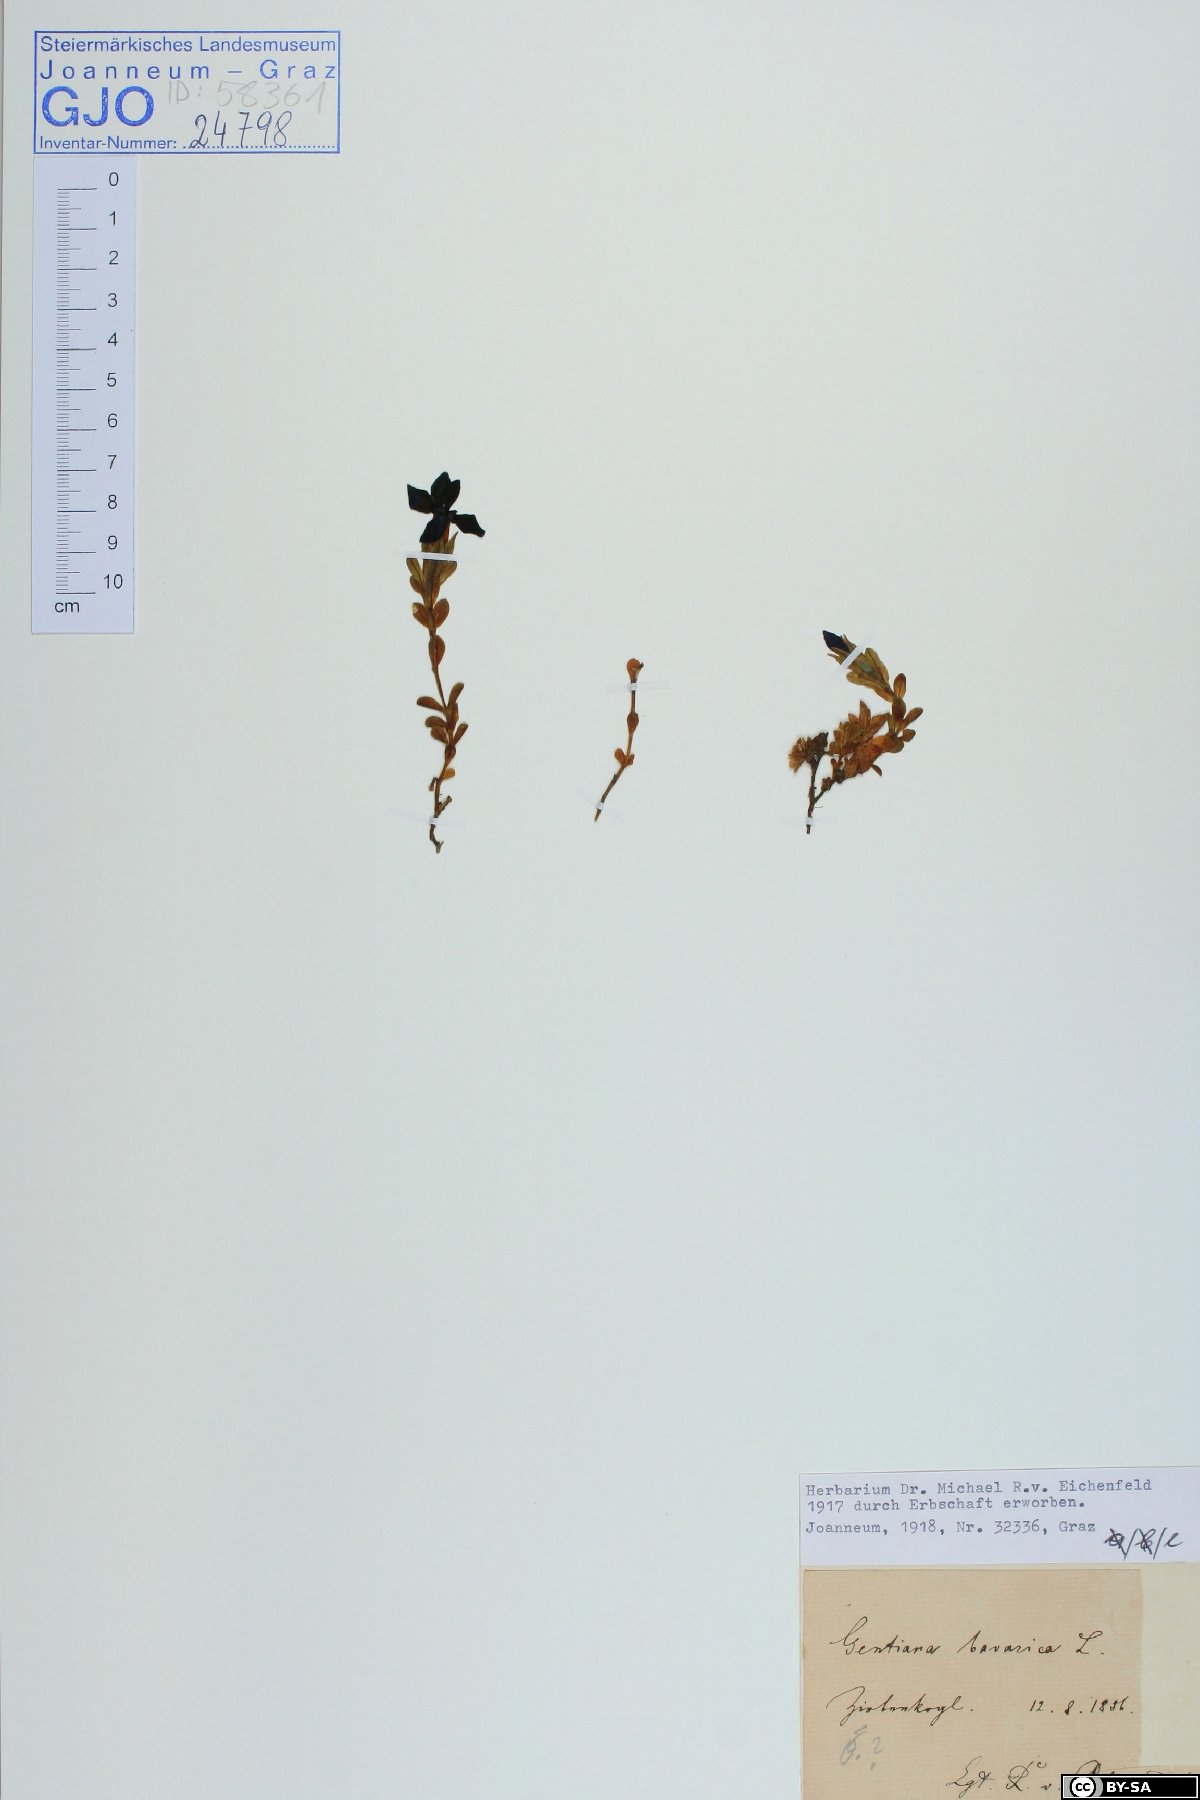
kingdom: Plantae
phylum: Tracheophyta
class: Magnoliopsida
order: Gentianales
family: Gentianaceae
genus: Gentiana
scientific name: Gentiana bavarica
